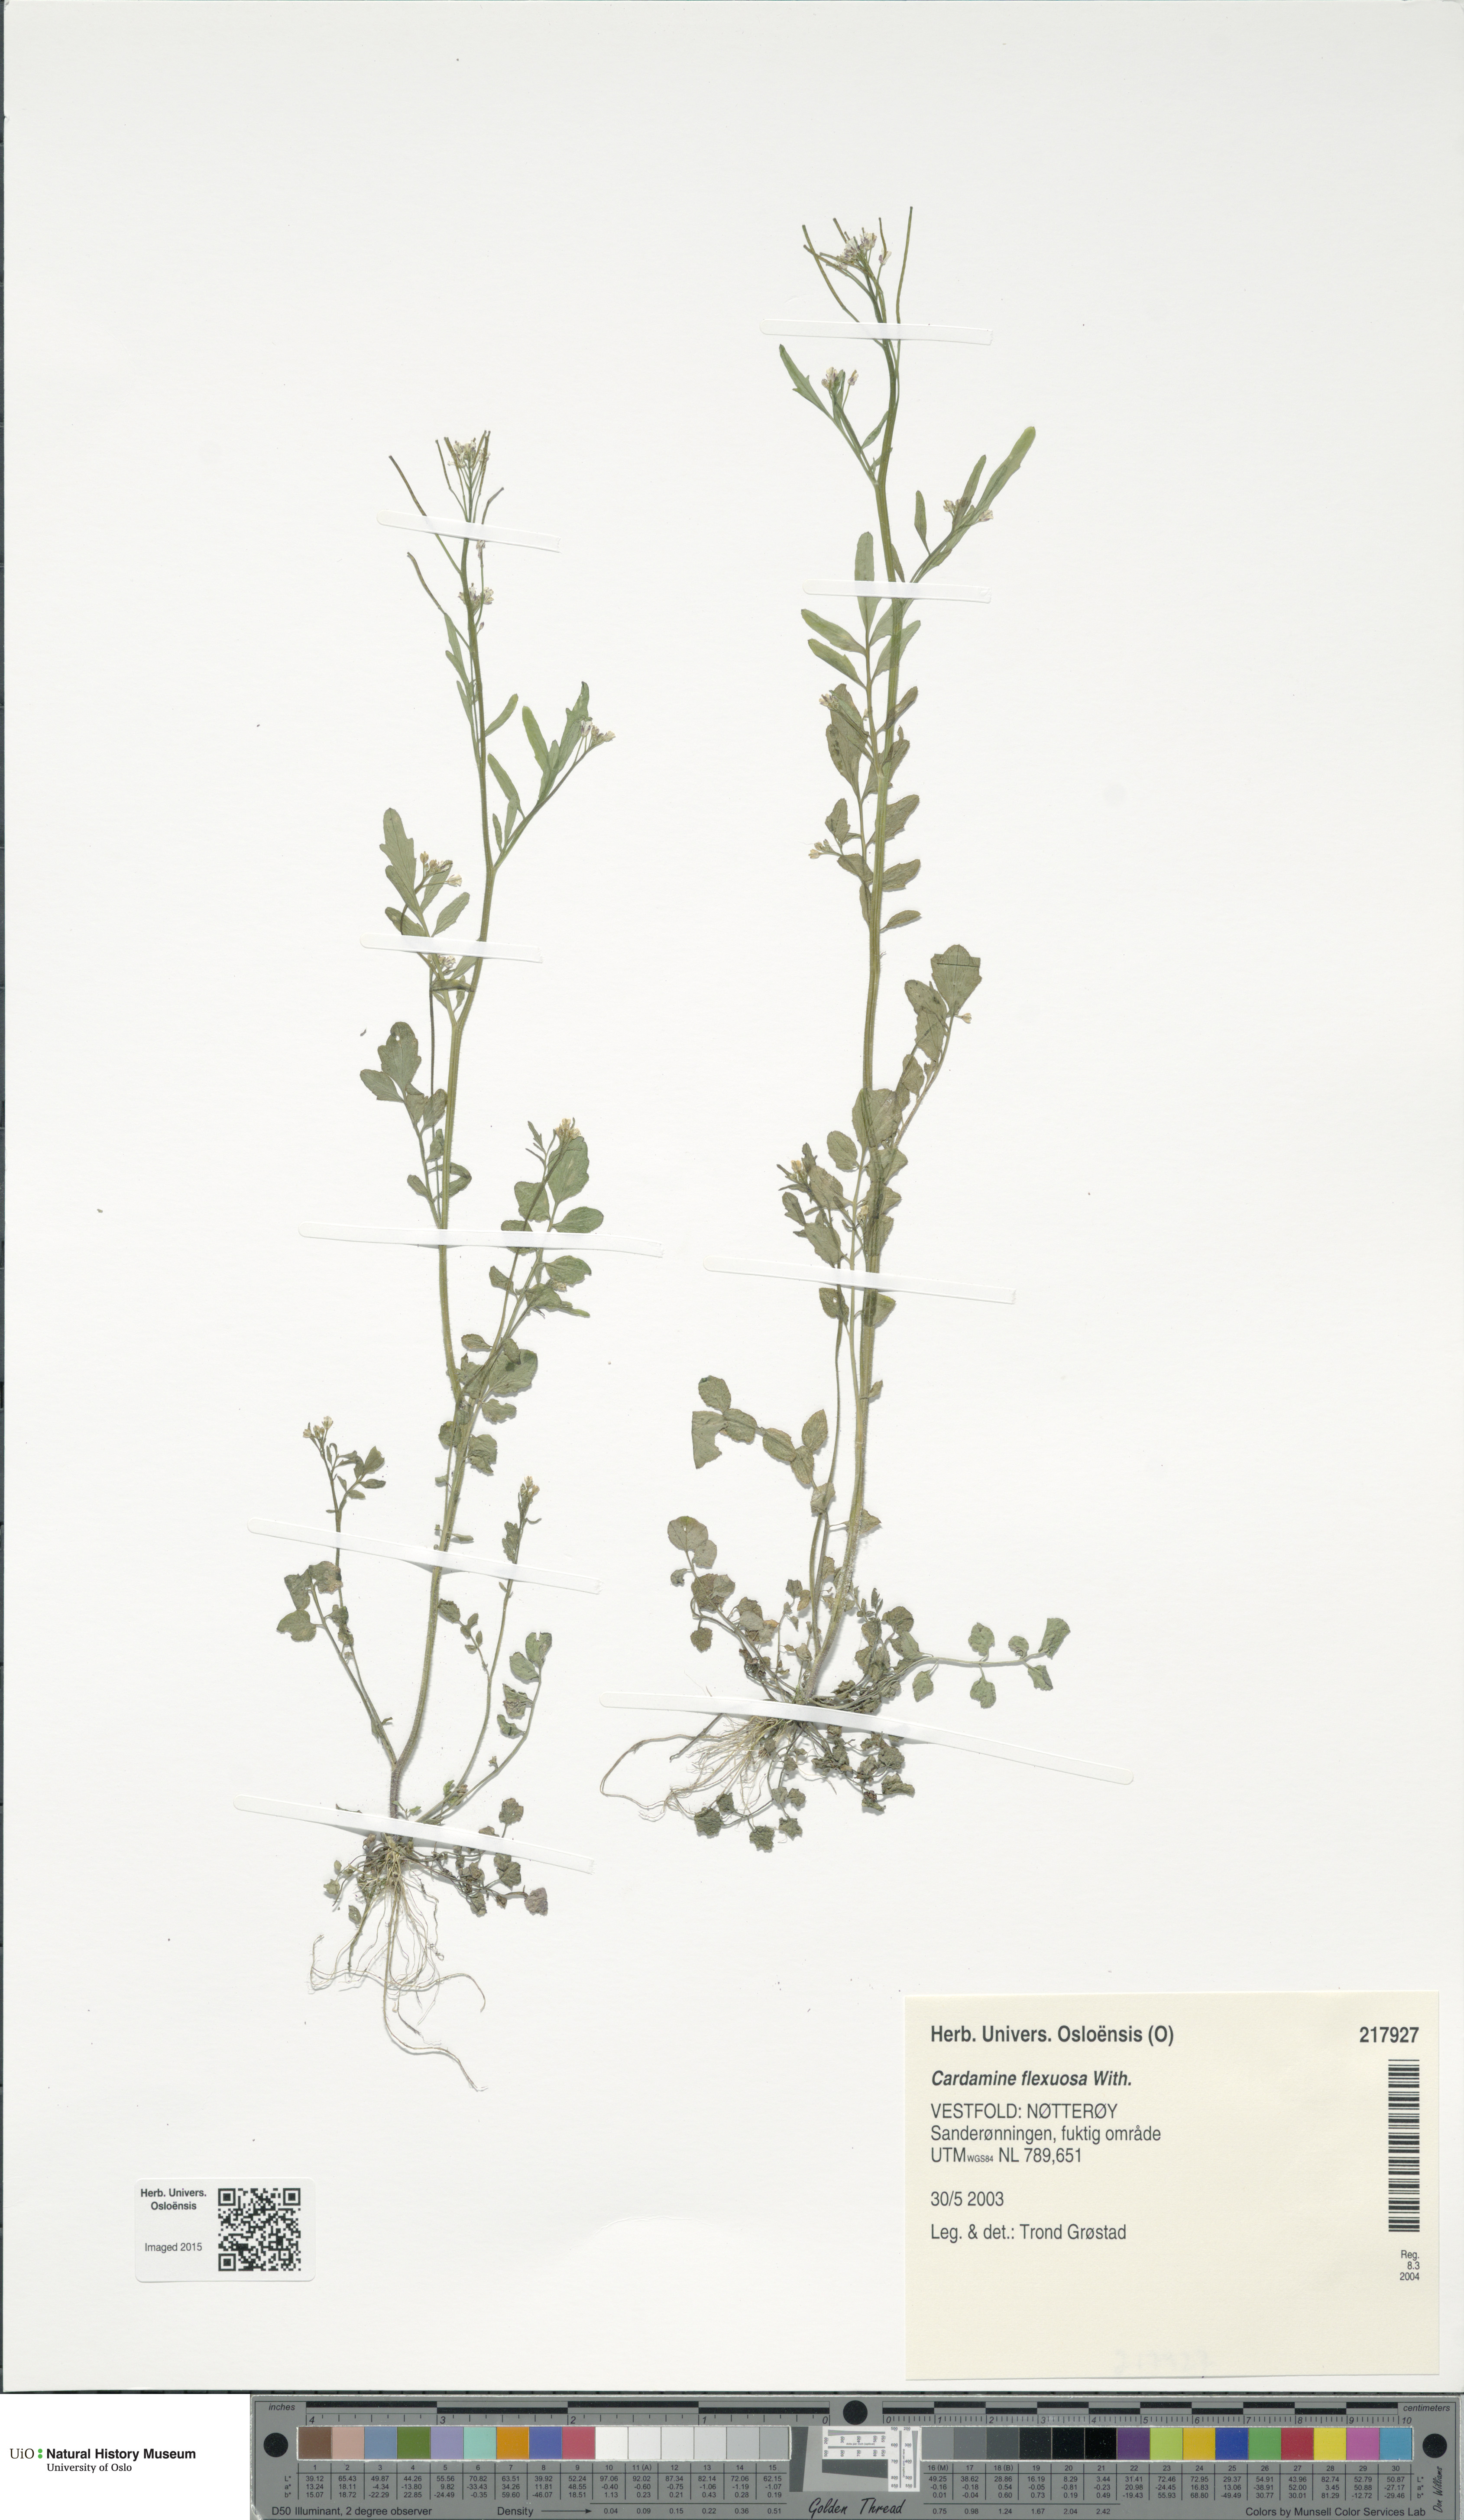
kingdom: Plantae
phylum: Tracheophyta
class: Magnoliopsida
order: Brassicales
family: Brassicaceae
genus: Cardamine
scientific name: Cardamine flexuosa
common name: Woodland bittercress
